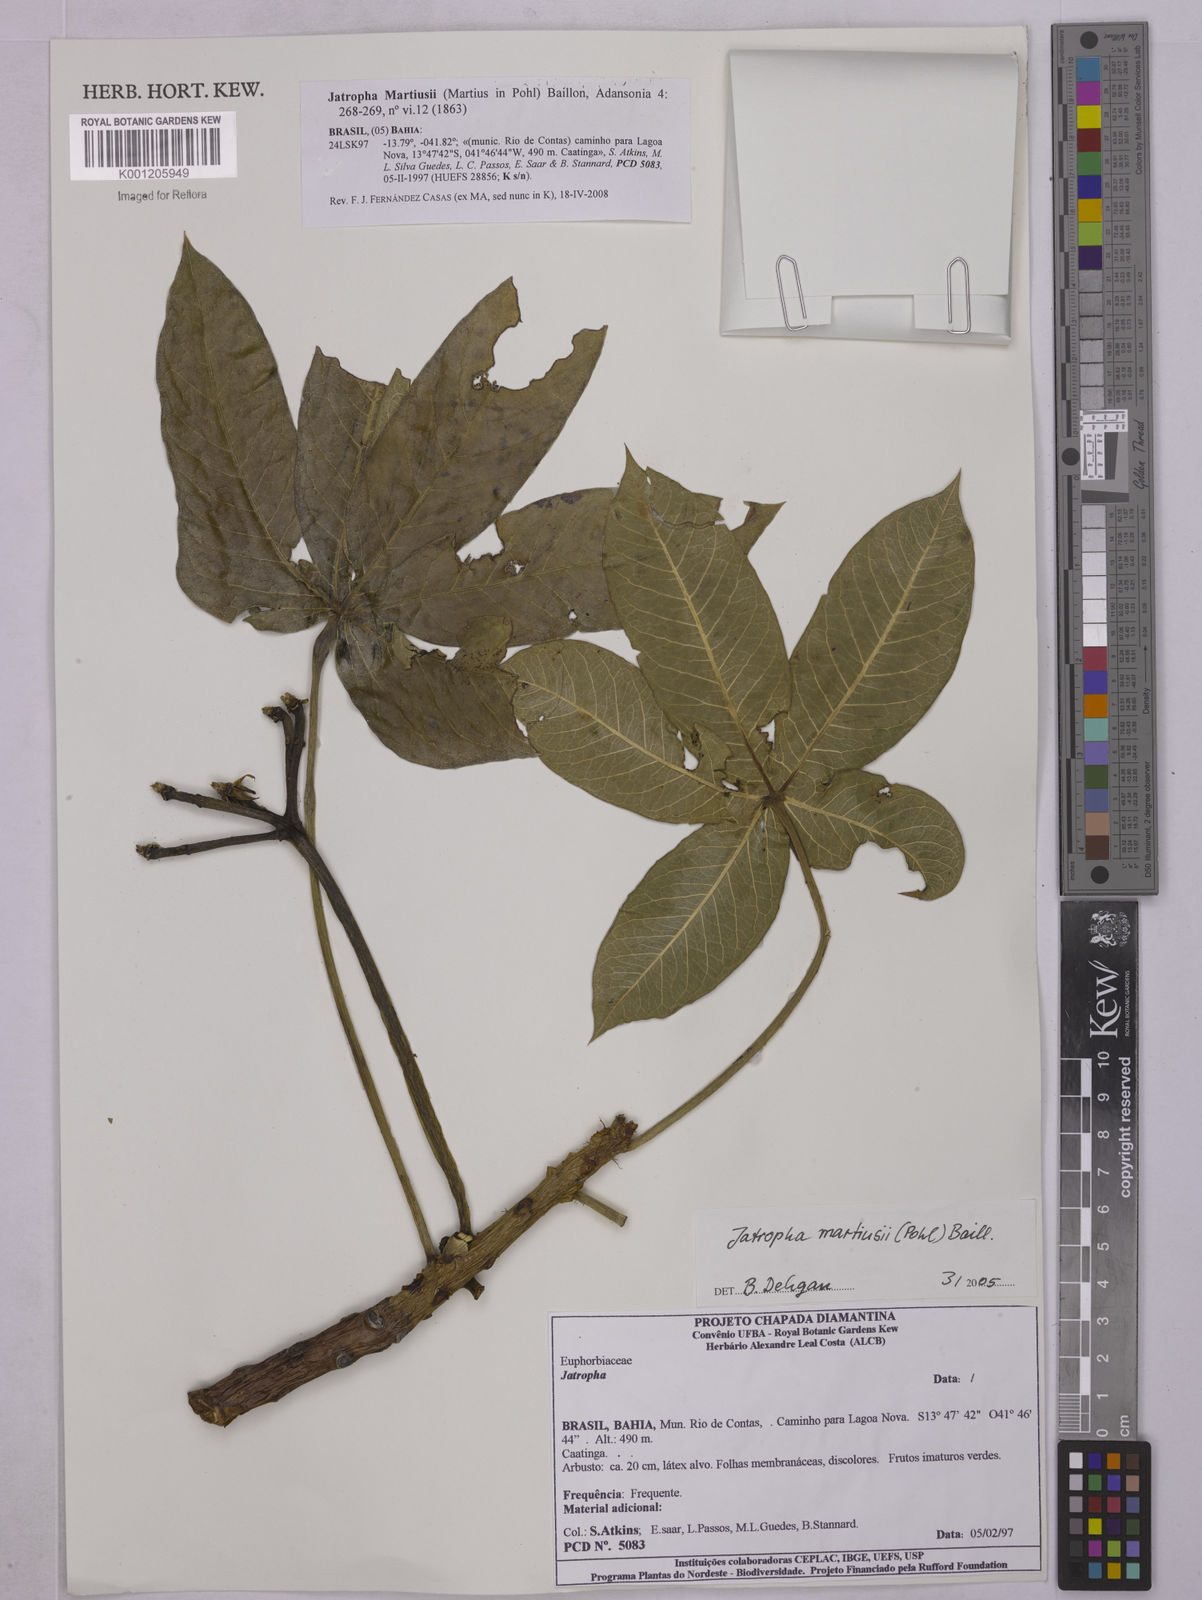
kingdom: Plantae
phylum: Tracheophyta
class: Magnoliopsida
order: Malpighiales
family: Euphorbiaceae
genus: Jatropha
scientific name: Jatropha martiusii
